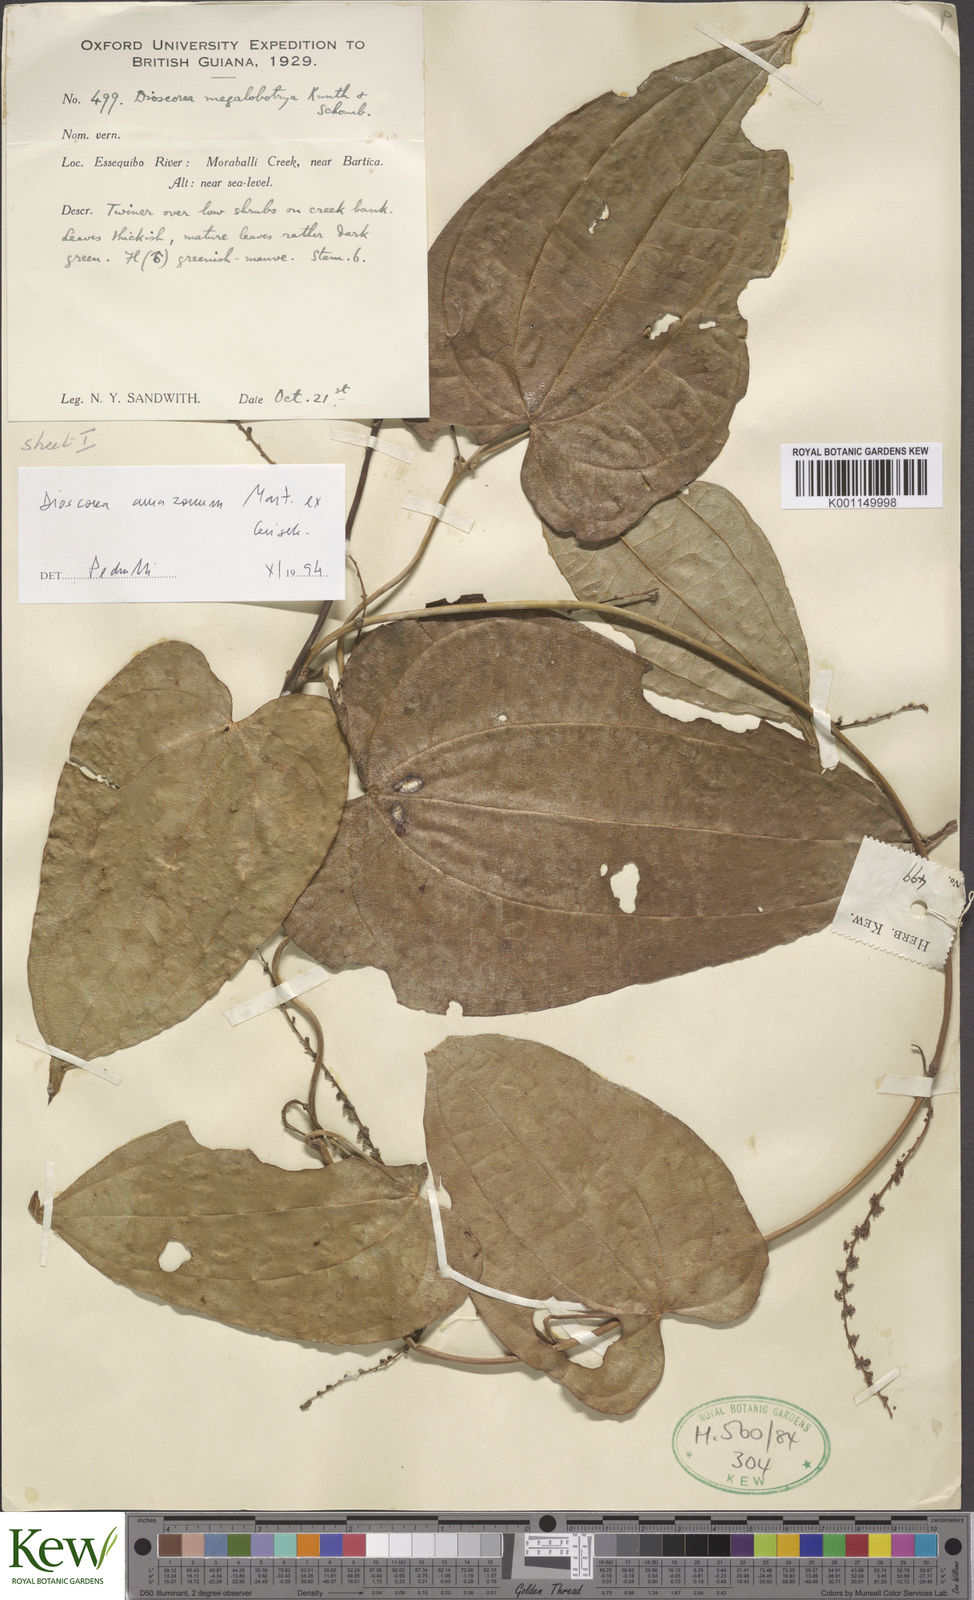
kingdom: Plantae
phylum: Tracheophyta
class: Liliopsida
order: Dioscoreales
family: Dioscoreaceae
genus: Dioscorea
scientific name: Dioscorea amazonum
